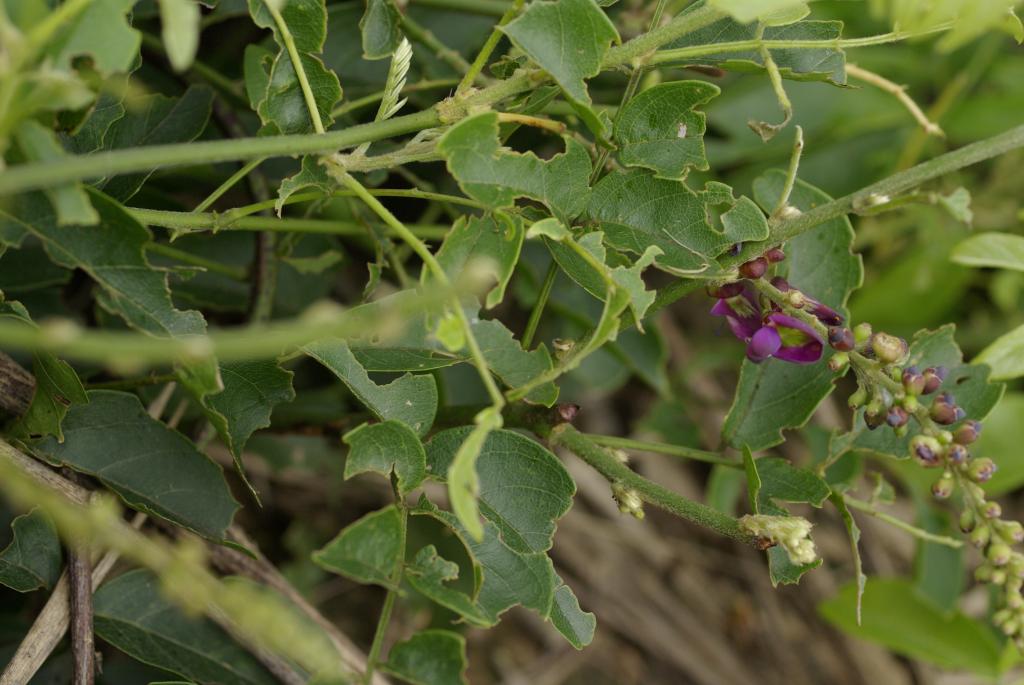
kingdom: Plantae
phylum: Tracheophyta
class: Magnoliopsida
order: Fabales
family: Fabaceae
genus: Wisteriopsis
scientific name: Wisteriopsis reticulata
